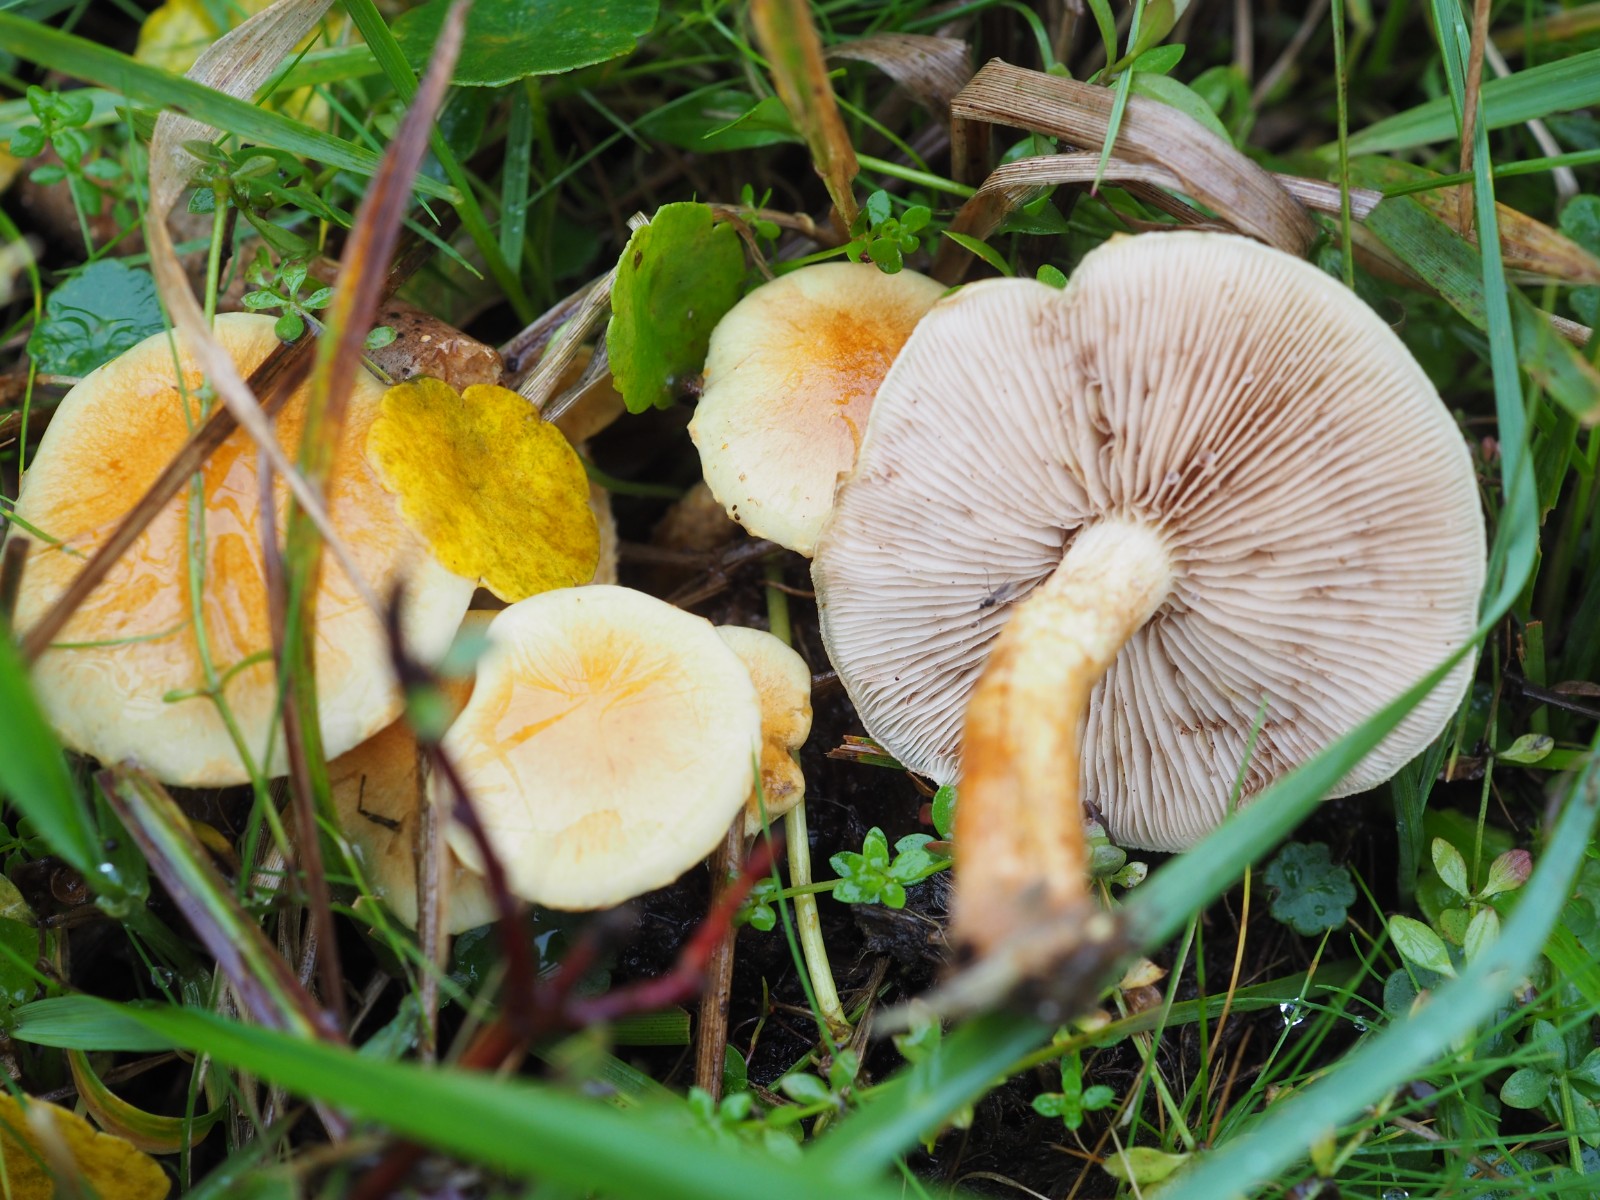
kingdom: Fungi
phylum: Basidiomycota
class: Agaricomycetes
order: Agaricales
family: Strophariaceae
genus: Pholiota
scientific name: Pholiota conissans
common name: pile-skælhat
